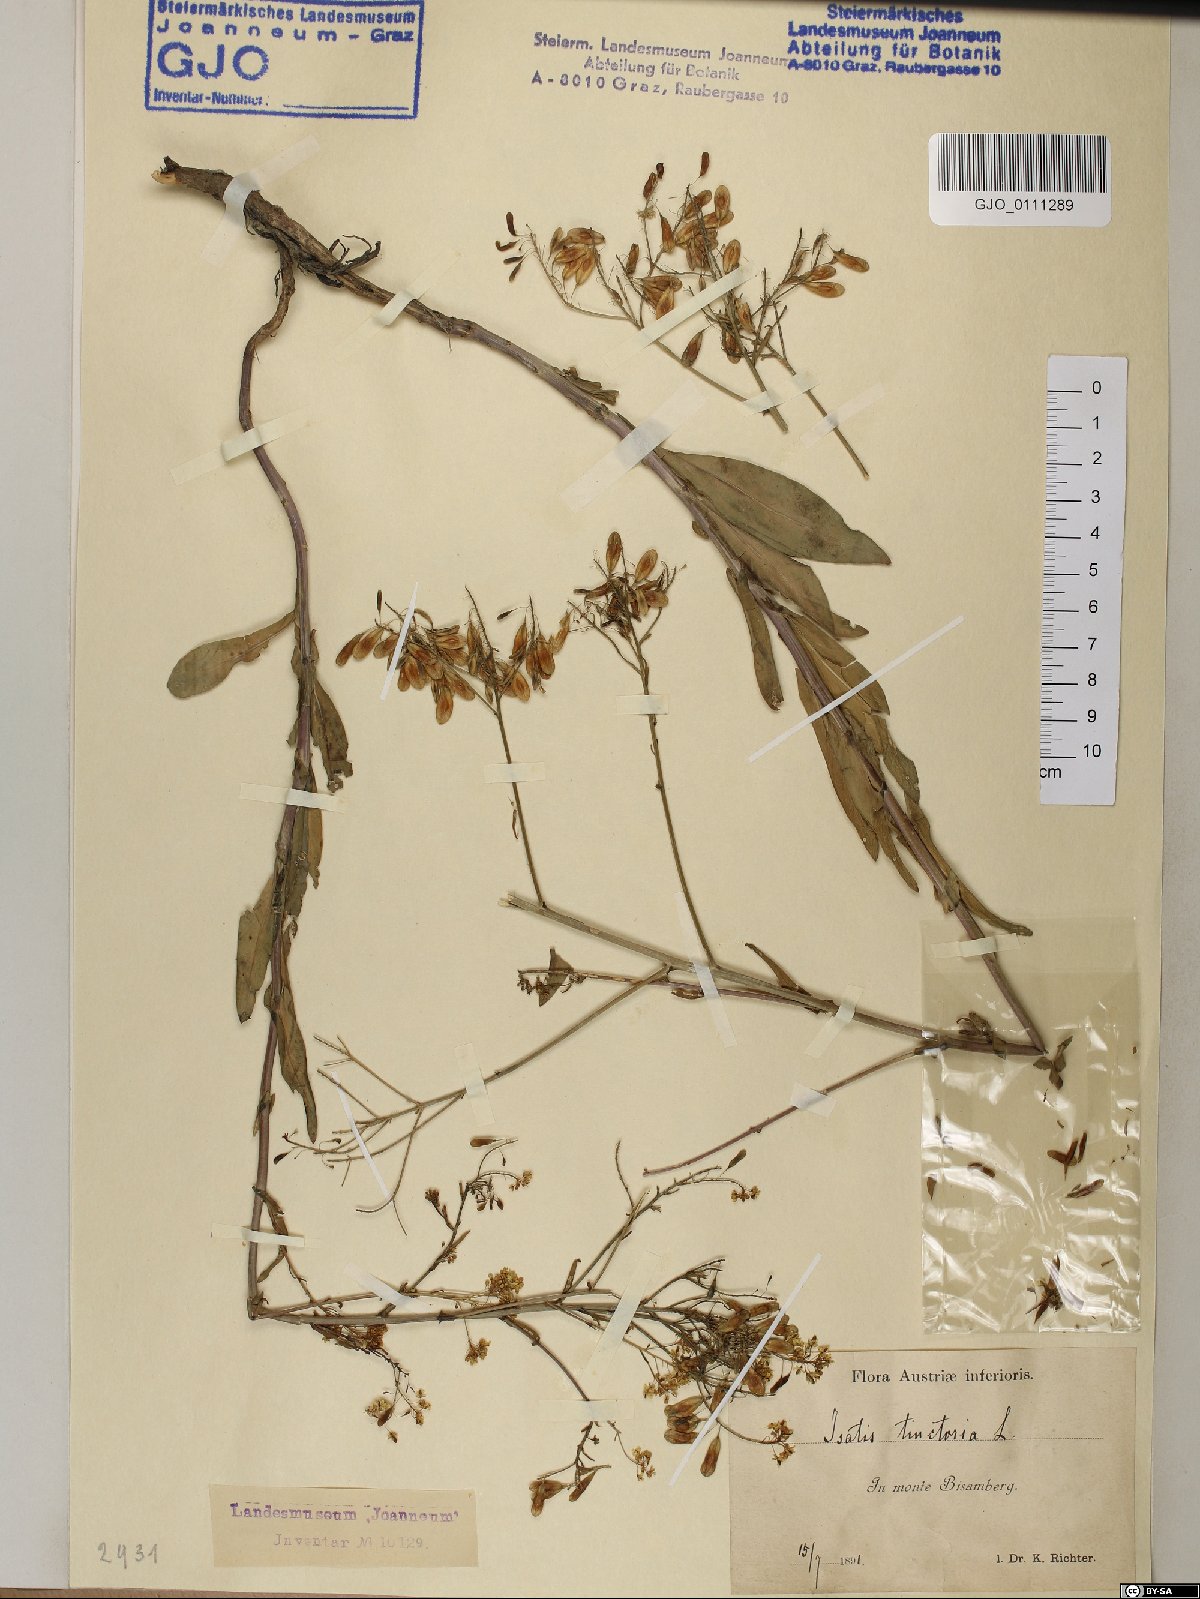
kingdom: Plantae
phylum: Tracheophyta
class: Magnoliopsida
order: Brassicales
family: Brassicaceae
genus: Isatis
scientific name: Isatis tinctoria
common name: Woad
